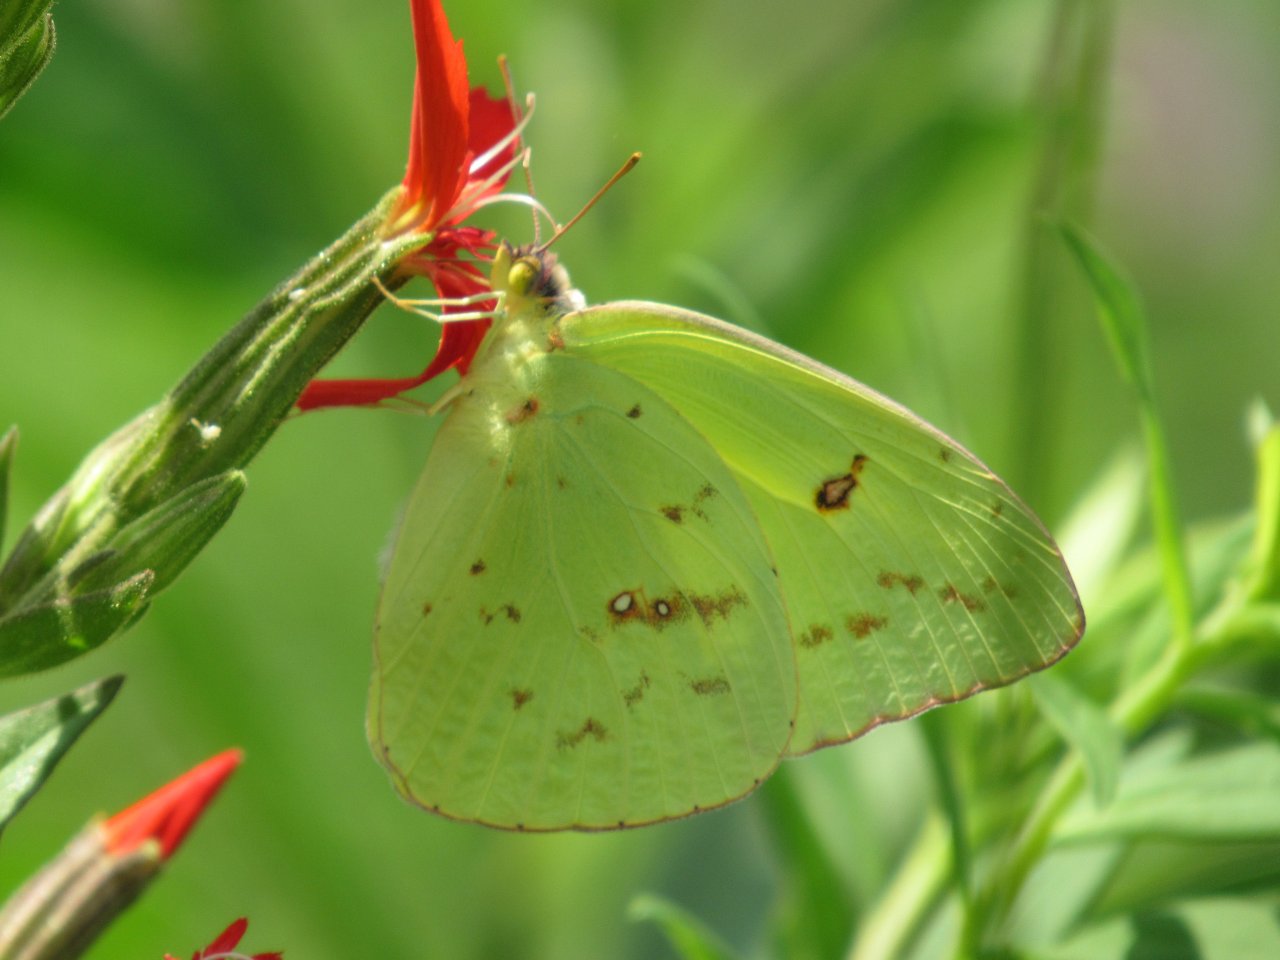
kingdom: Animalia
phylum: Arthropoda
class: Insecta
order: Lepidoptera
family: Pieridae
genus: Phoebis
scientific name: Phoebis sennae
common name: Cloudless Sulphur
